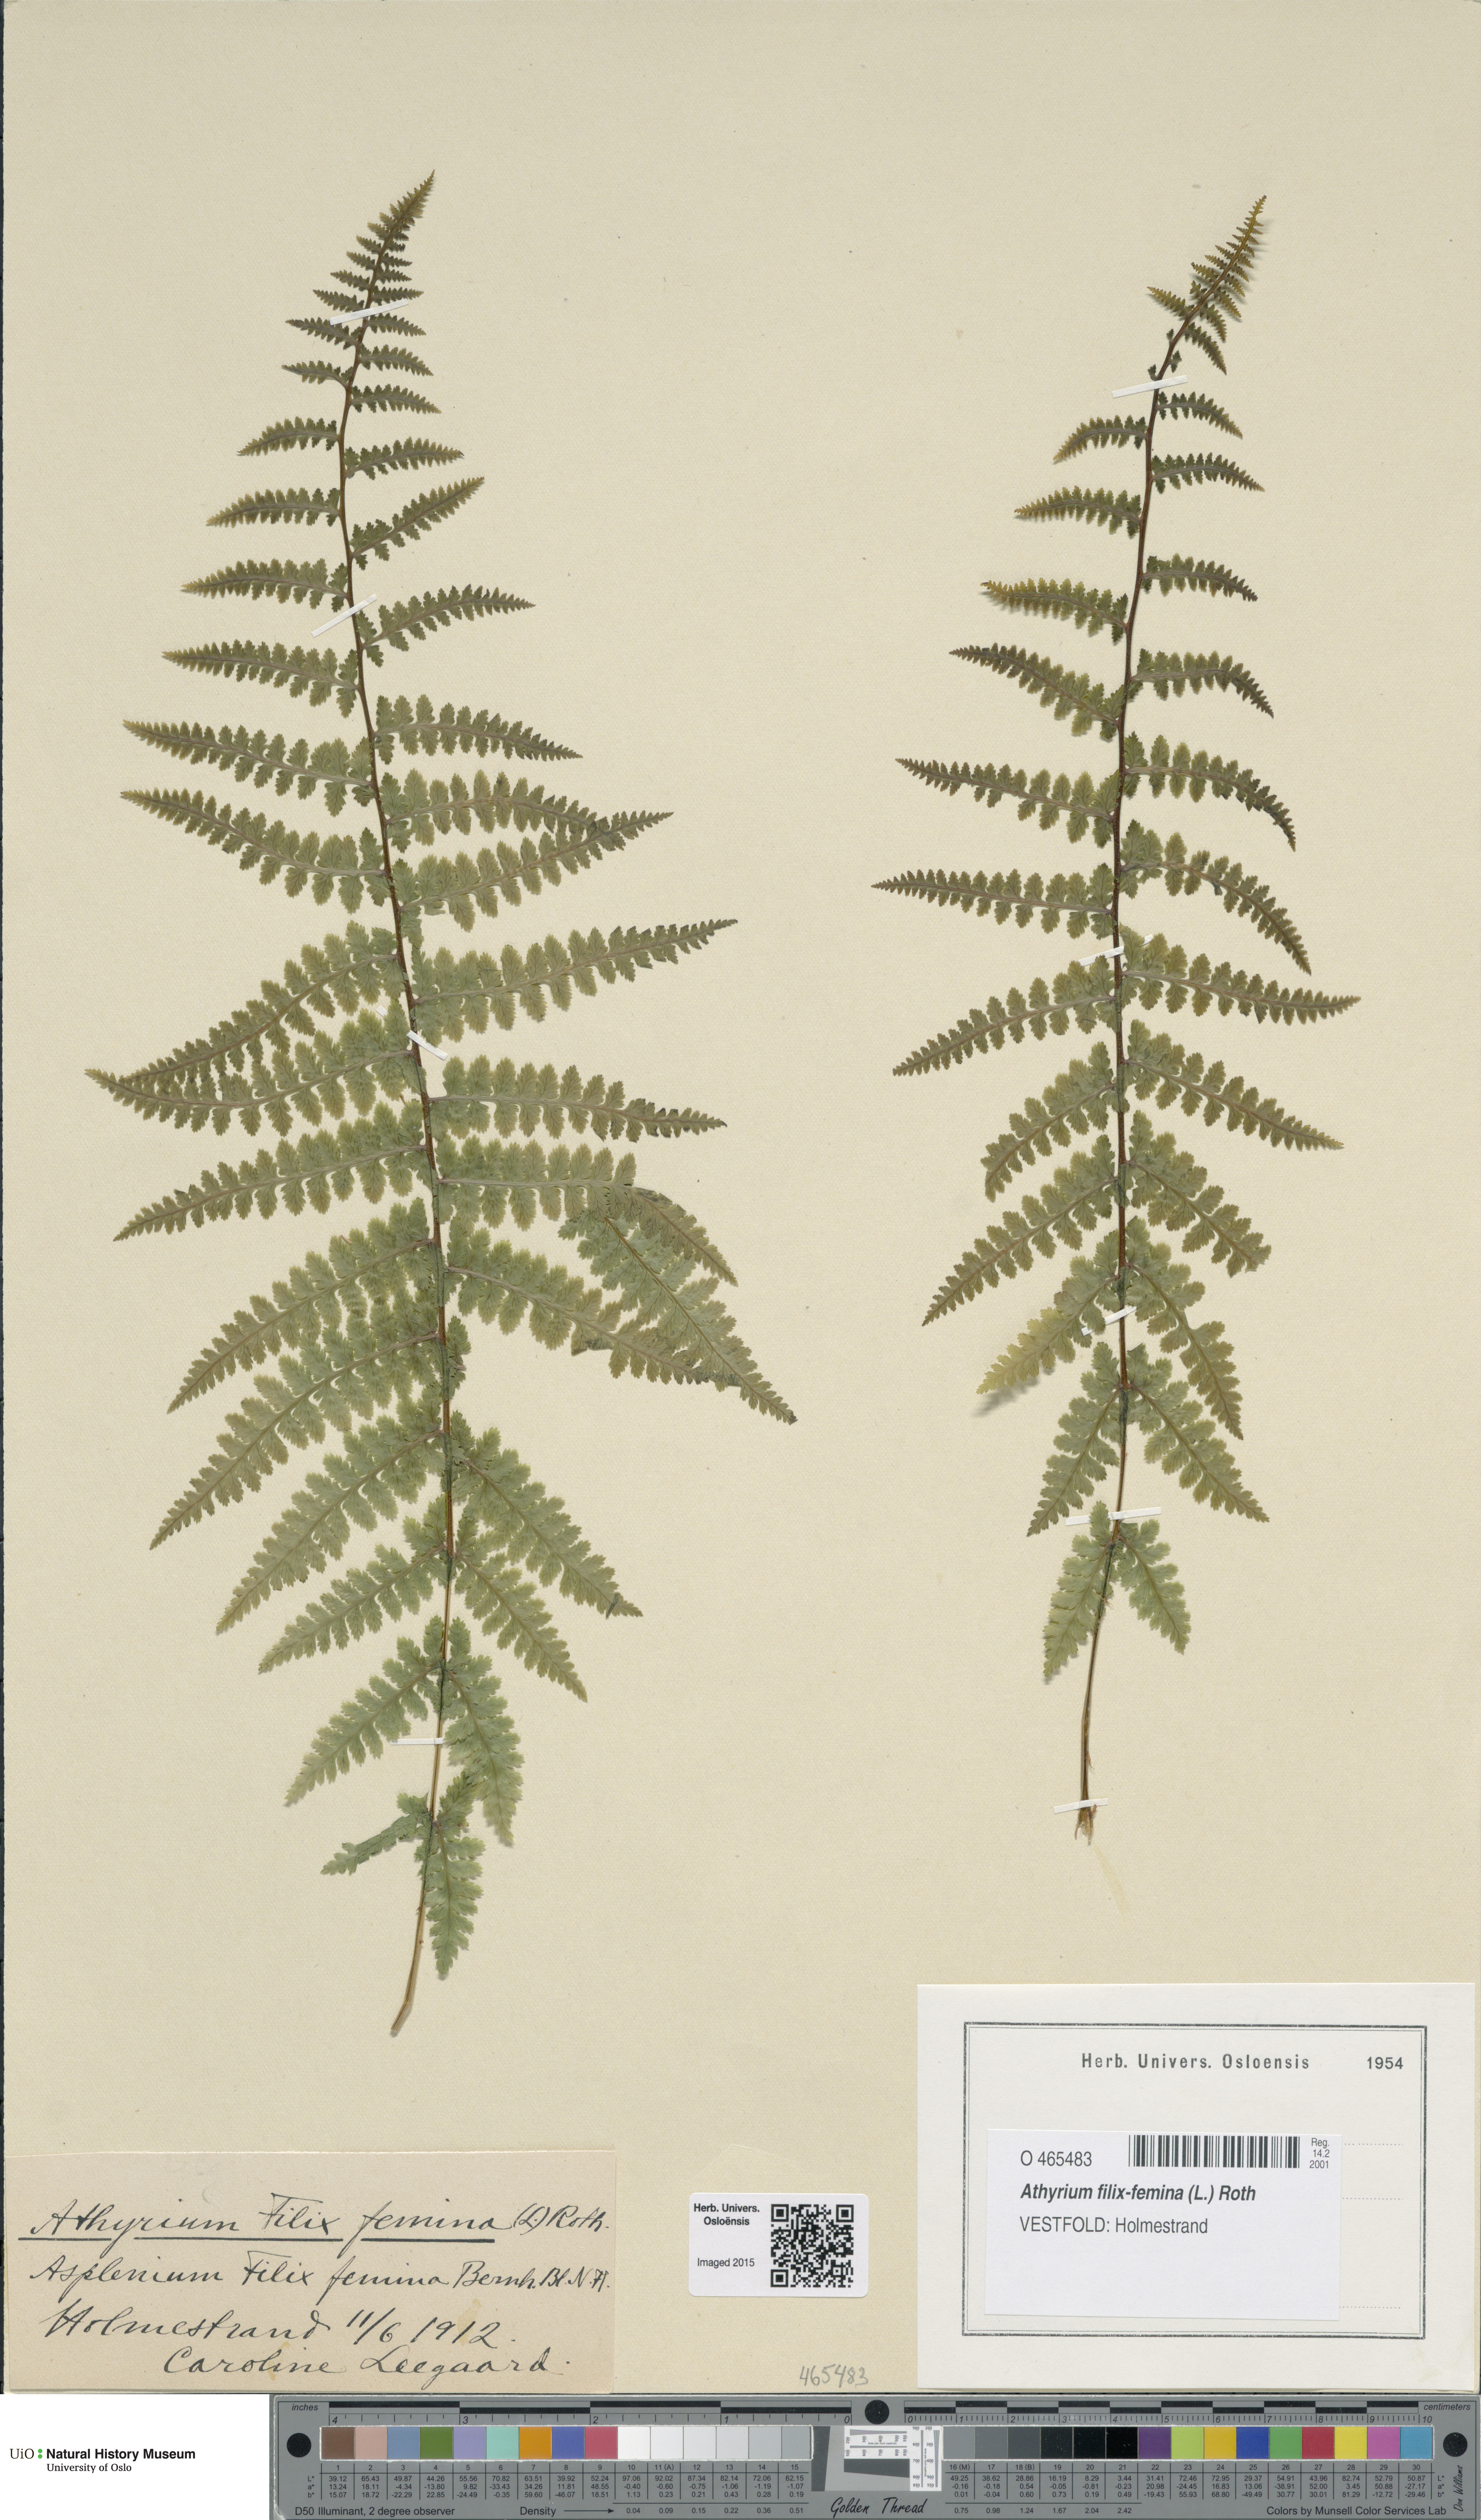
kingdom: Plantae
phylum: Tracheophyta
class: Polypodiopsida
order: Polypodiales
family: Athyriaceae
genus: Athyrium
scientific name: Athyrium filix-femina
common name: Lady fern
